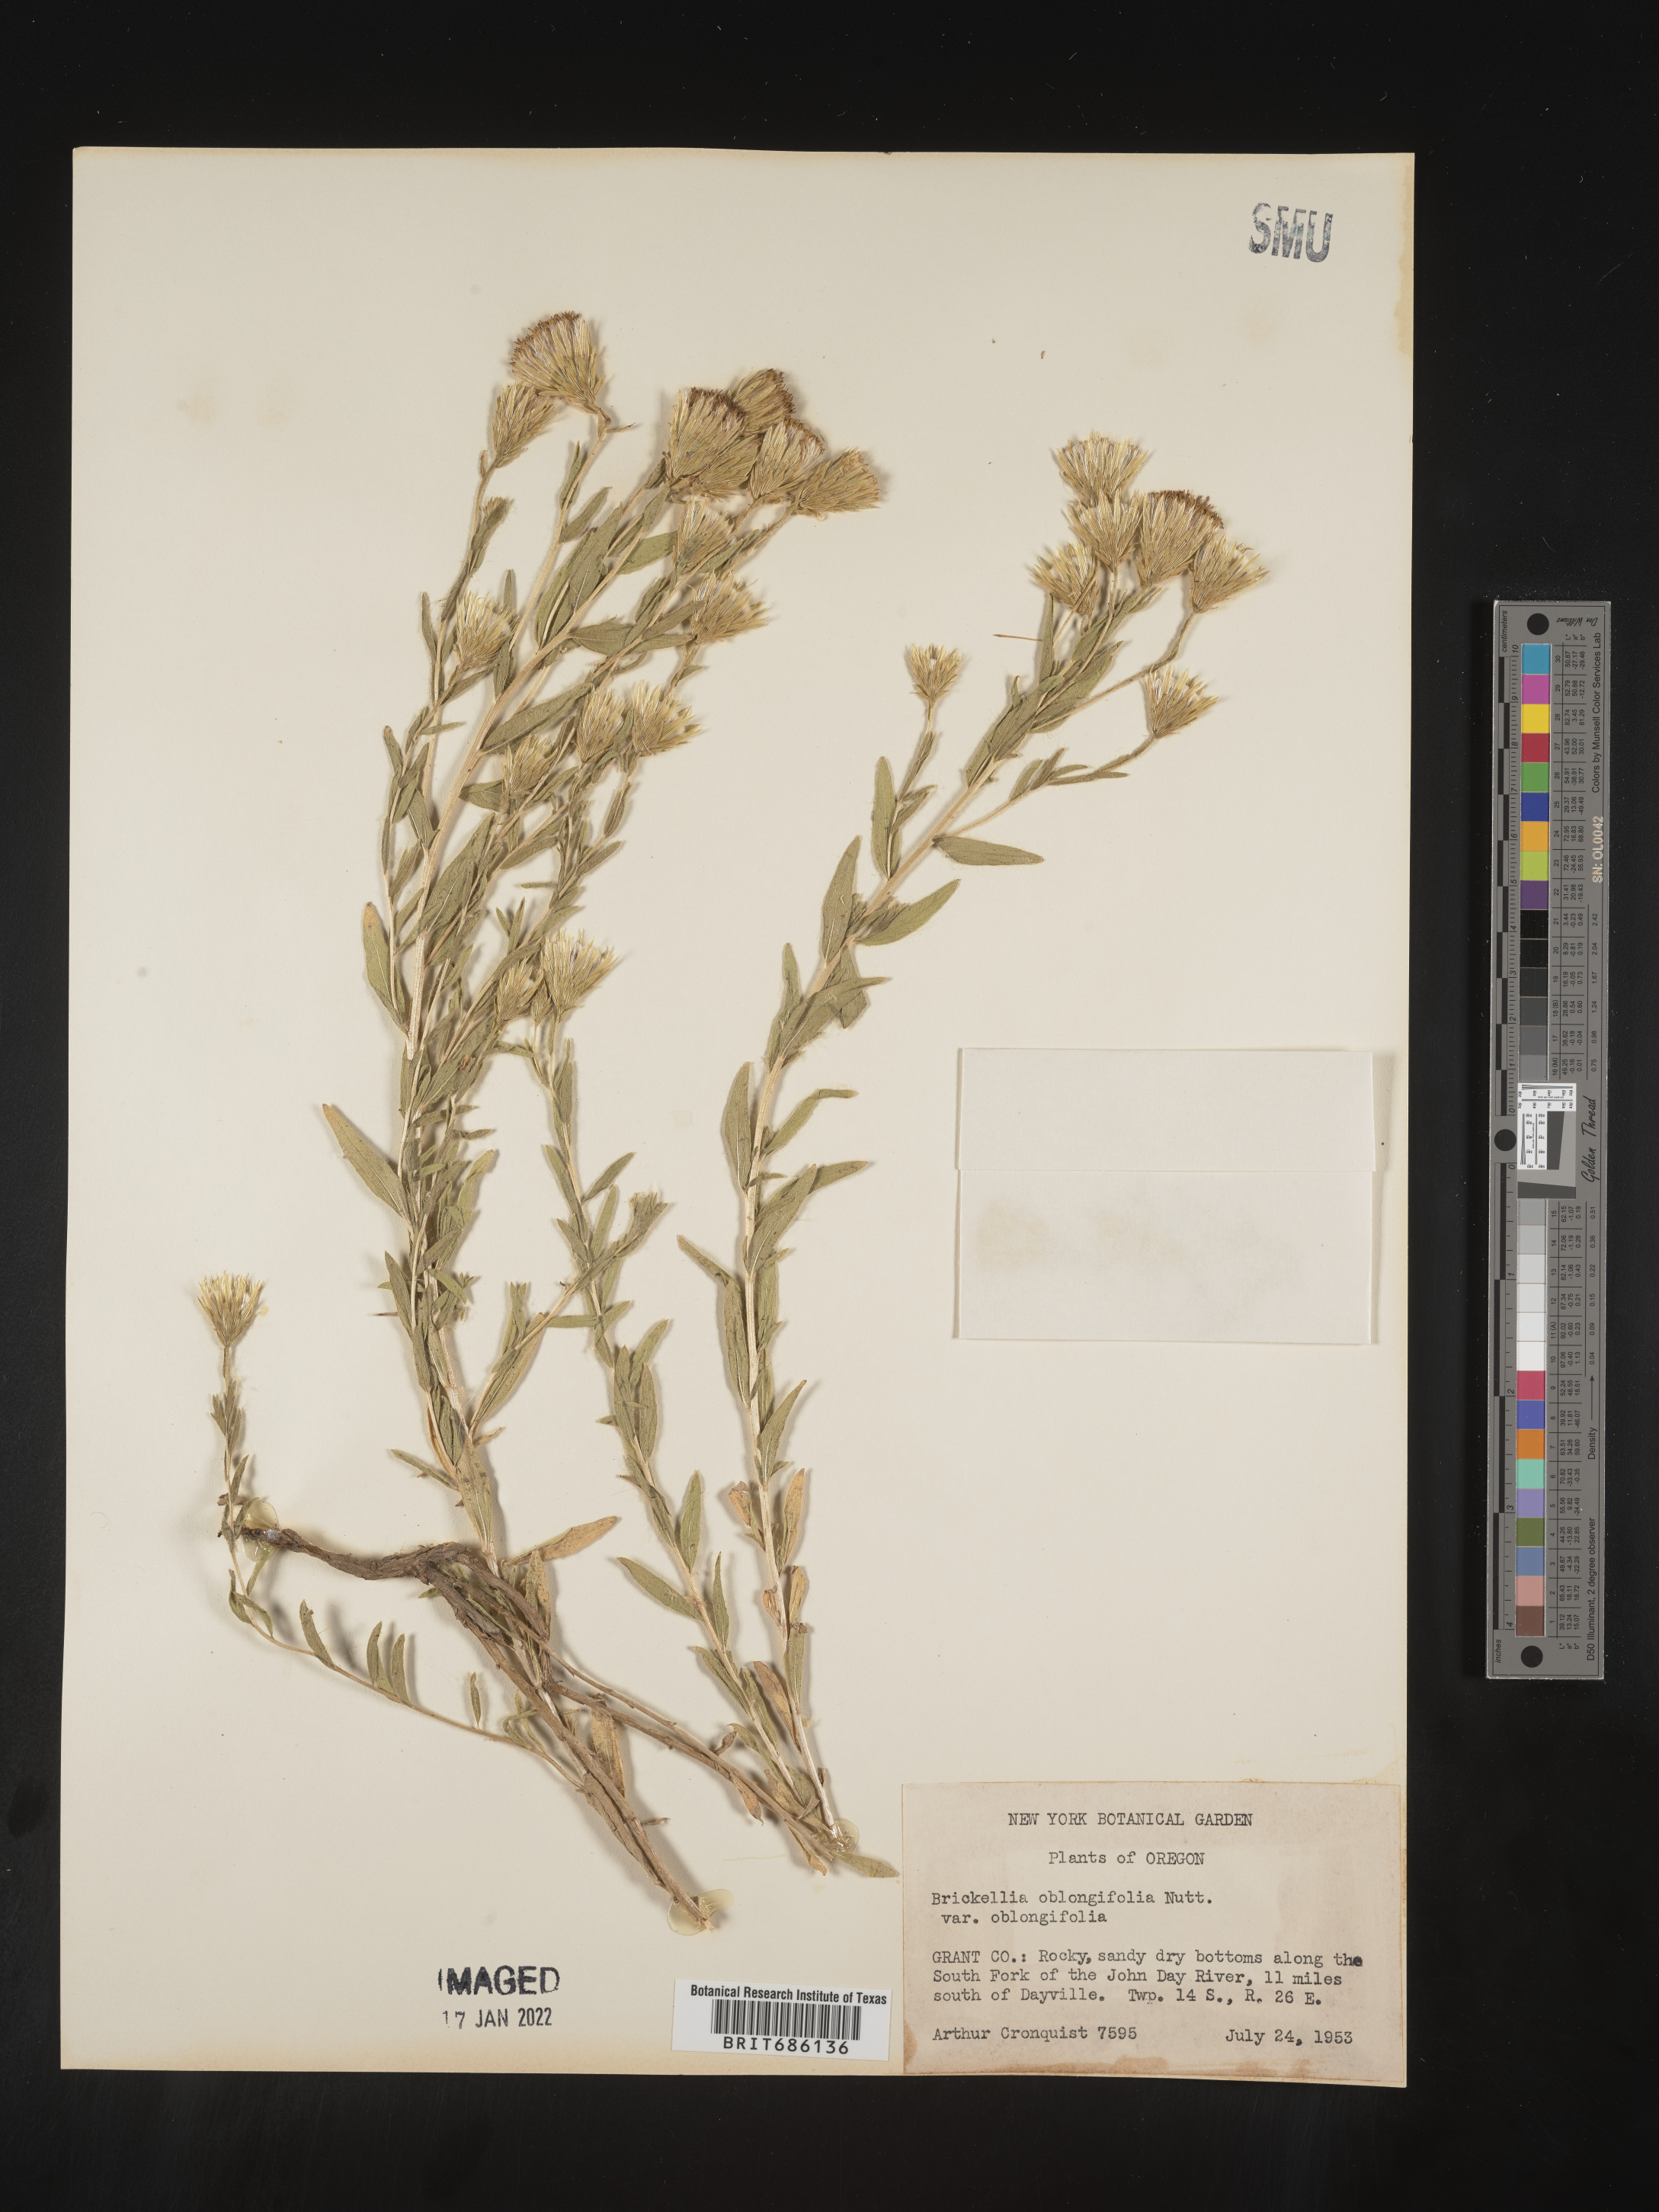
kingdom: Plantae
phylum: Tracheophyta
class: Magnoliopsida
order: Asterales
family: Asteraceae
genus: Brickellia
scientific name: Brickellia oblongifolia
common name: Mojave brickellbush
